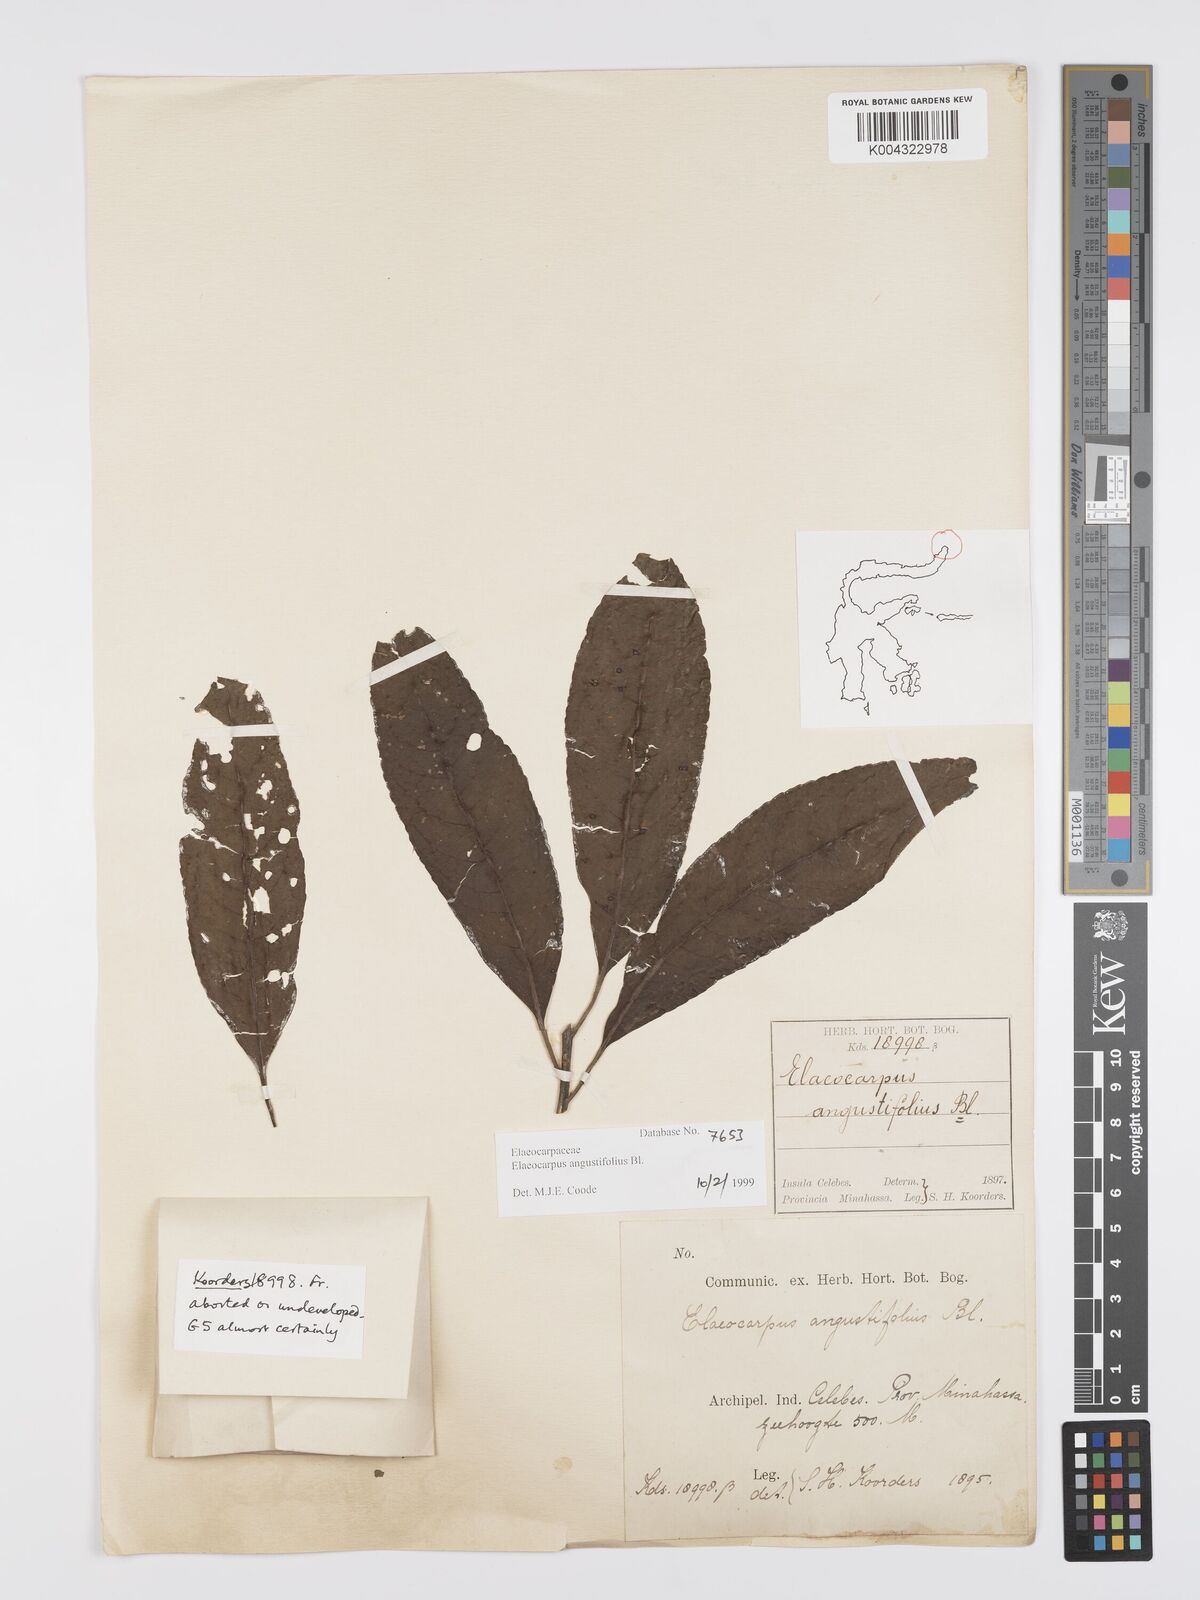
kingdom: Plantae
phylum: Tracheophyta
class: Magnoliopsida
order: Oxalidales
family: Elaeocarpaceae
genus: Elaeocarpus
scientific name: Elaeocarpus
